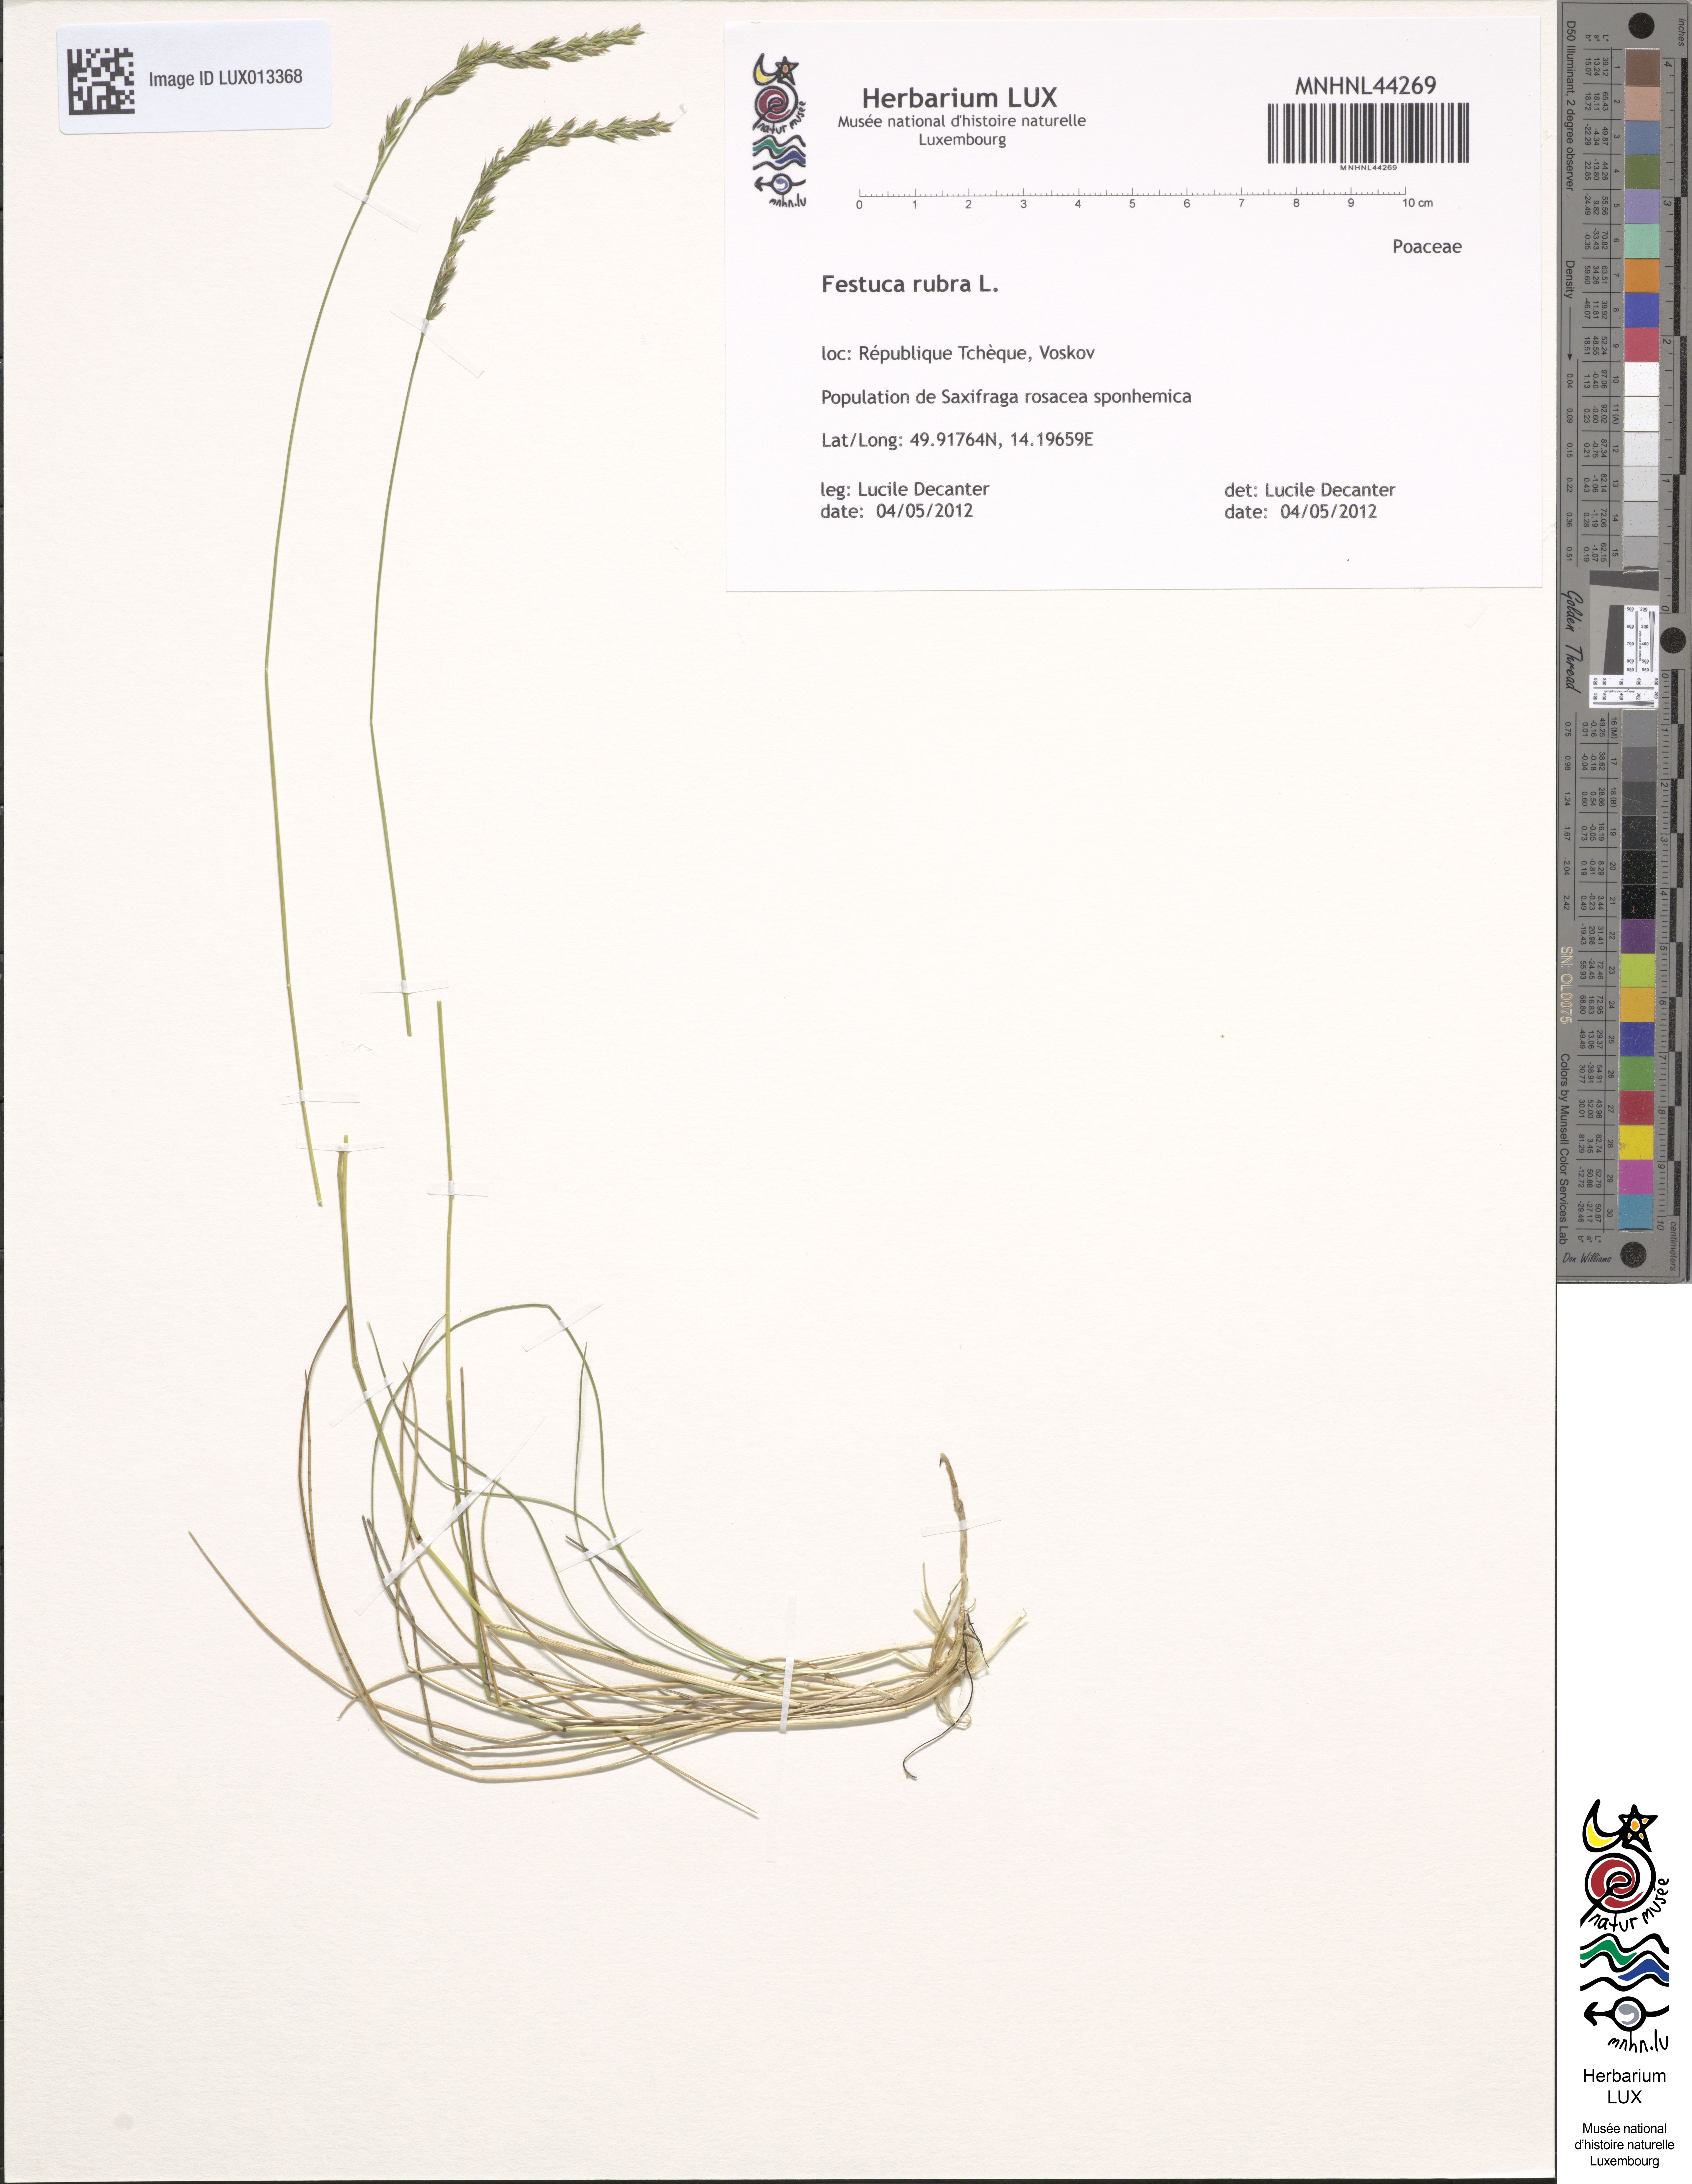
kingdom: Plantae
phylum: Tracheophyta
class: Liliopsida
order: Poales
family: Poaceae
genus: Festuca
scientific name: Festuca rubra
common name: Red fescue
